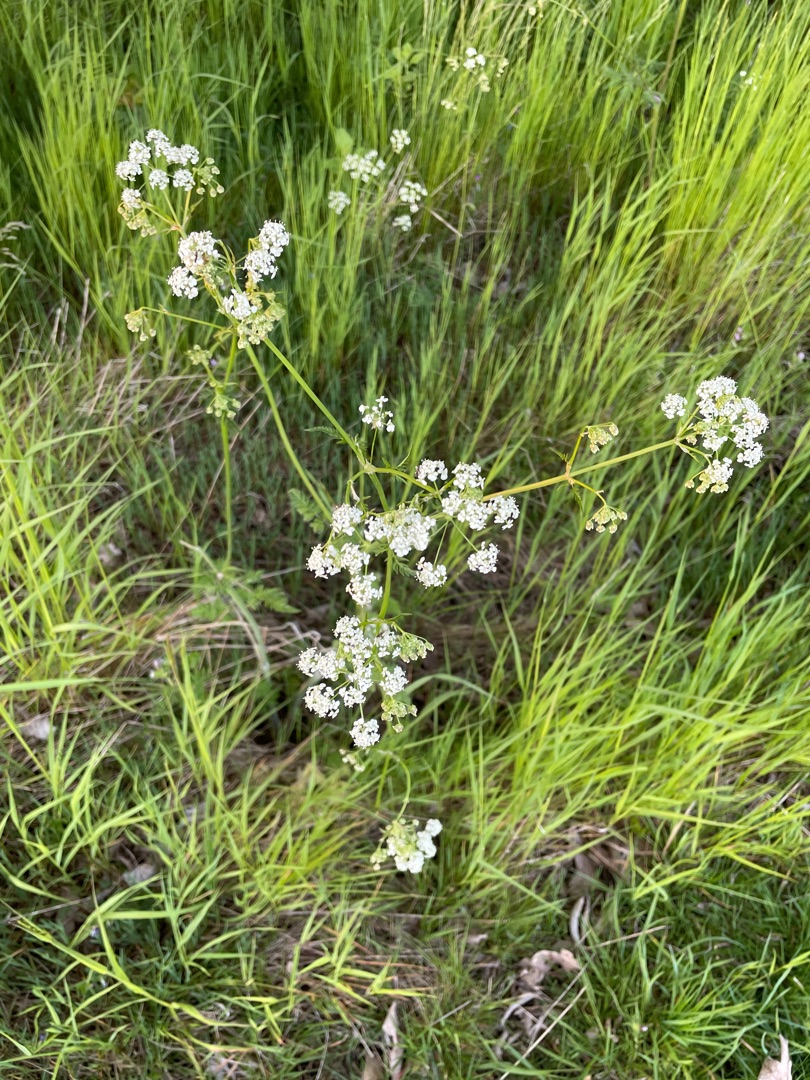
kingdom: Plantae
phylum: Tracheophyta
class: Magnoliopsida
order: Apiales
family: Apiaceae
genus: Anthriscus
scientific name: Anthriscus sylvestris
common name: Vild kørvel
